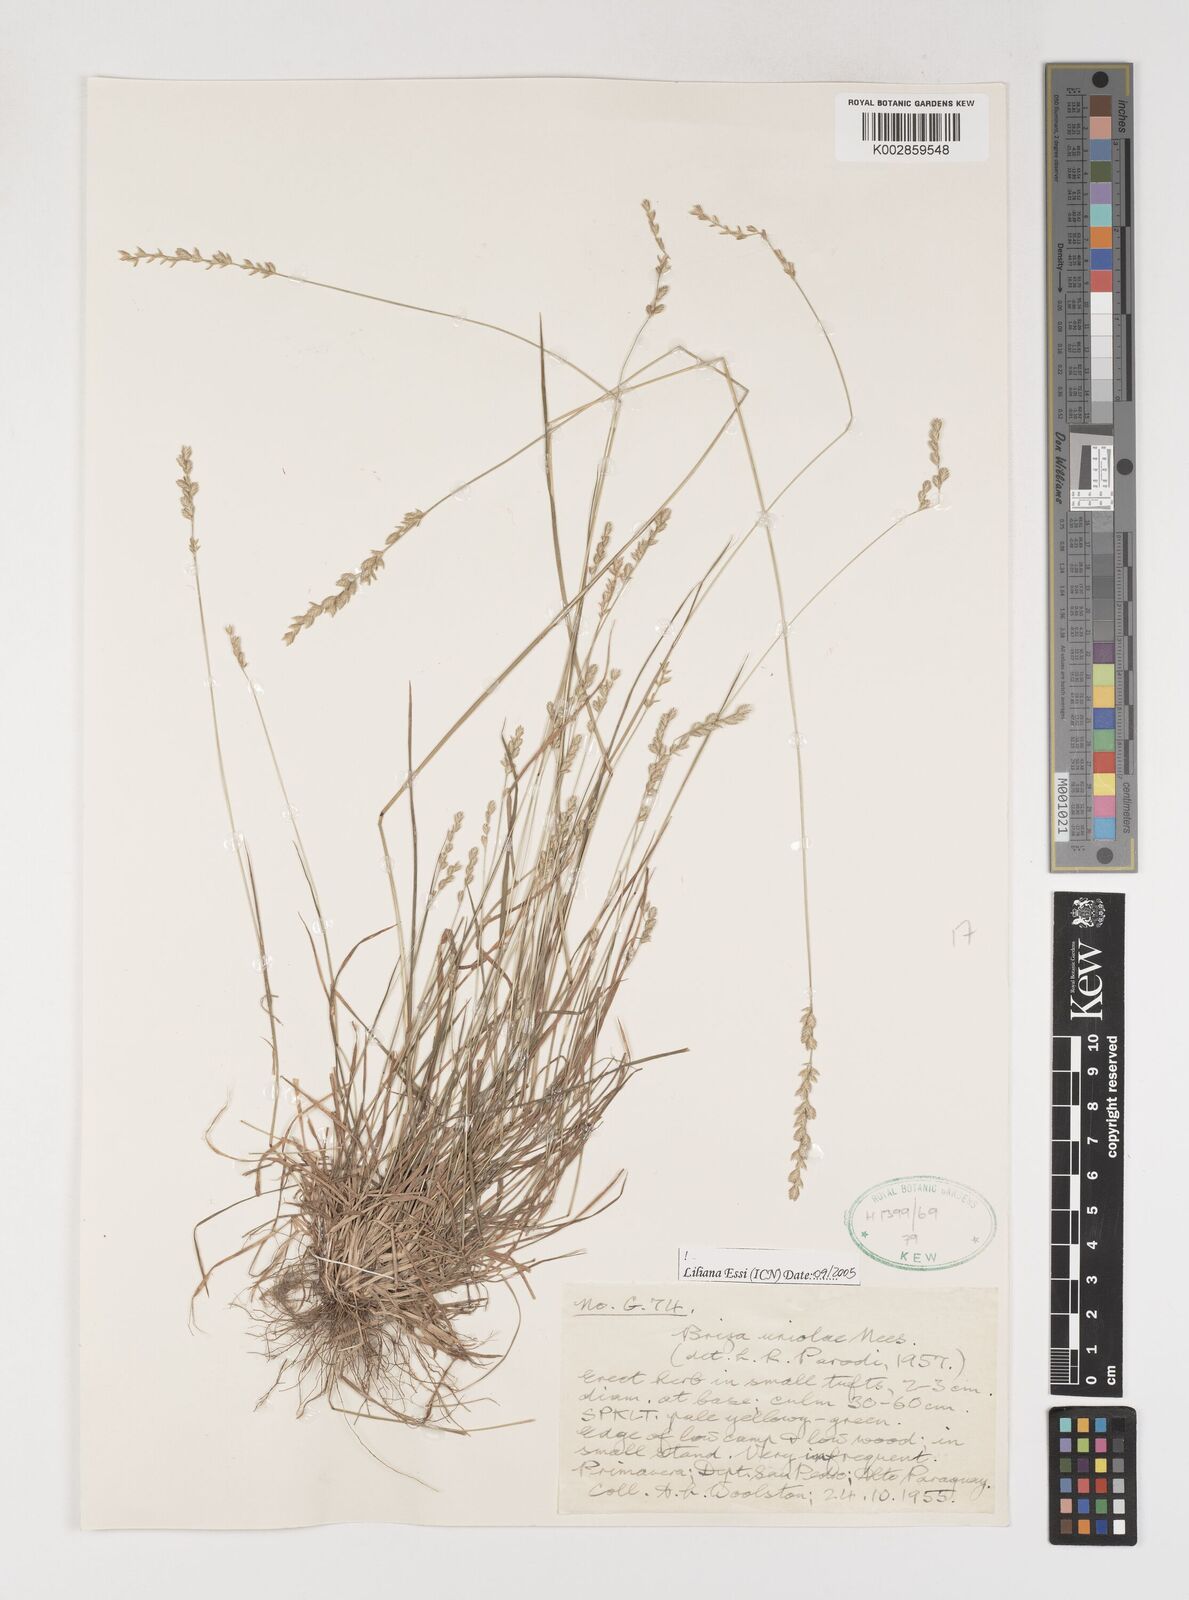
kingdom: Plantae
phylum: Tracheophyta
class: Liliopsida
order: Poales
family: Poaceae
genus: Poidium
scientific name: Poidium uniolae
